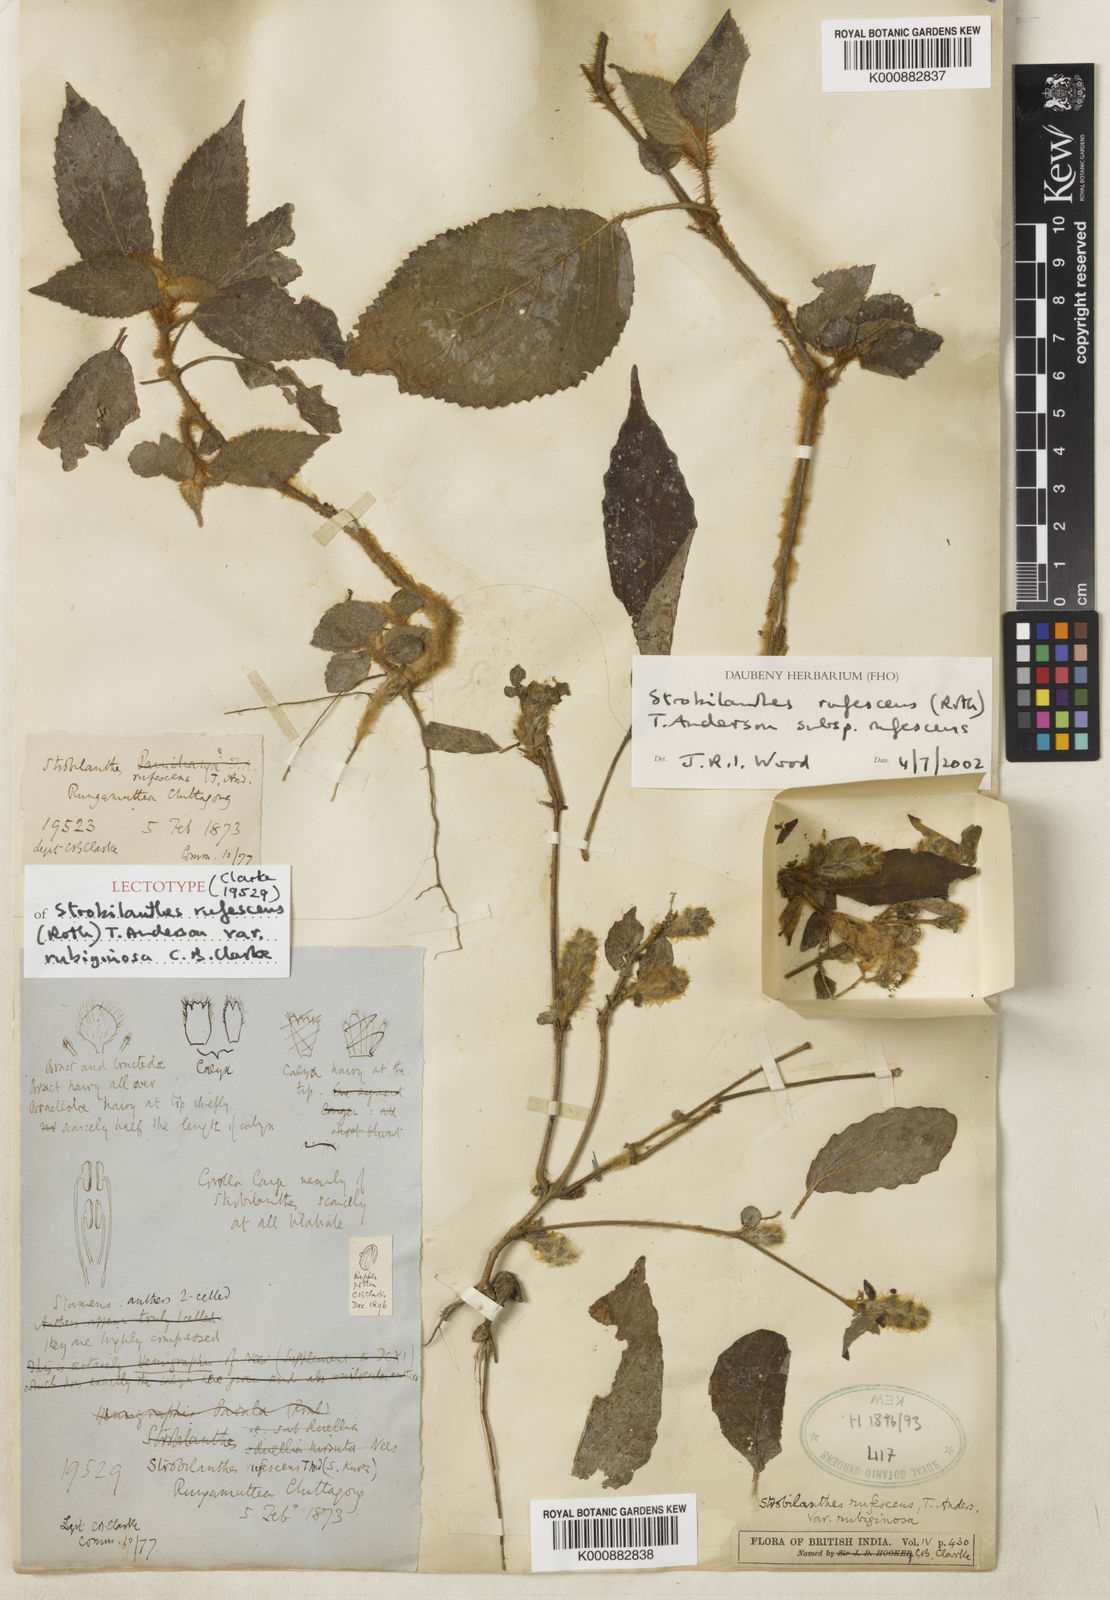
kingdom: Plantae
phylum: Tracheophyta
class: Magnoliopsida
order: Lamiales
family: Acanthaceae
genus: Strobilanthes
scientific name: Strobilanthes rufescens
